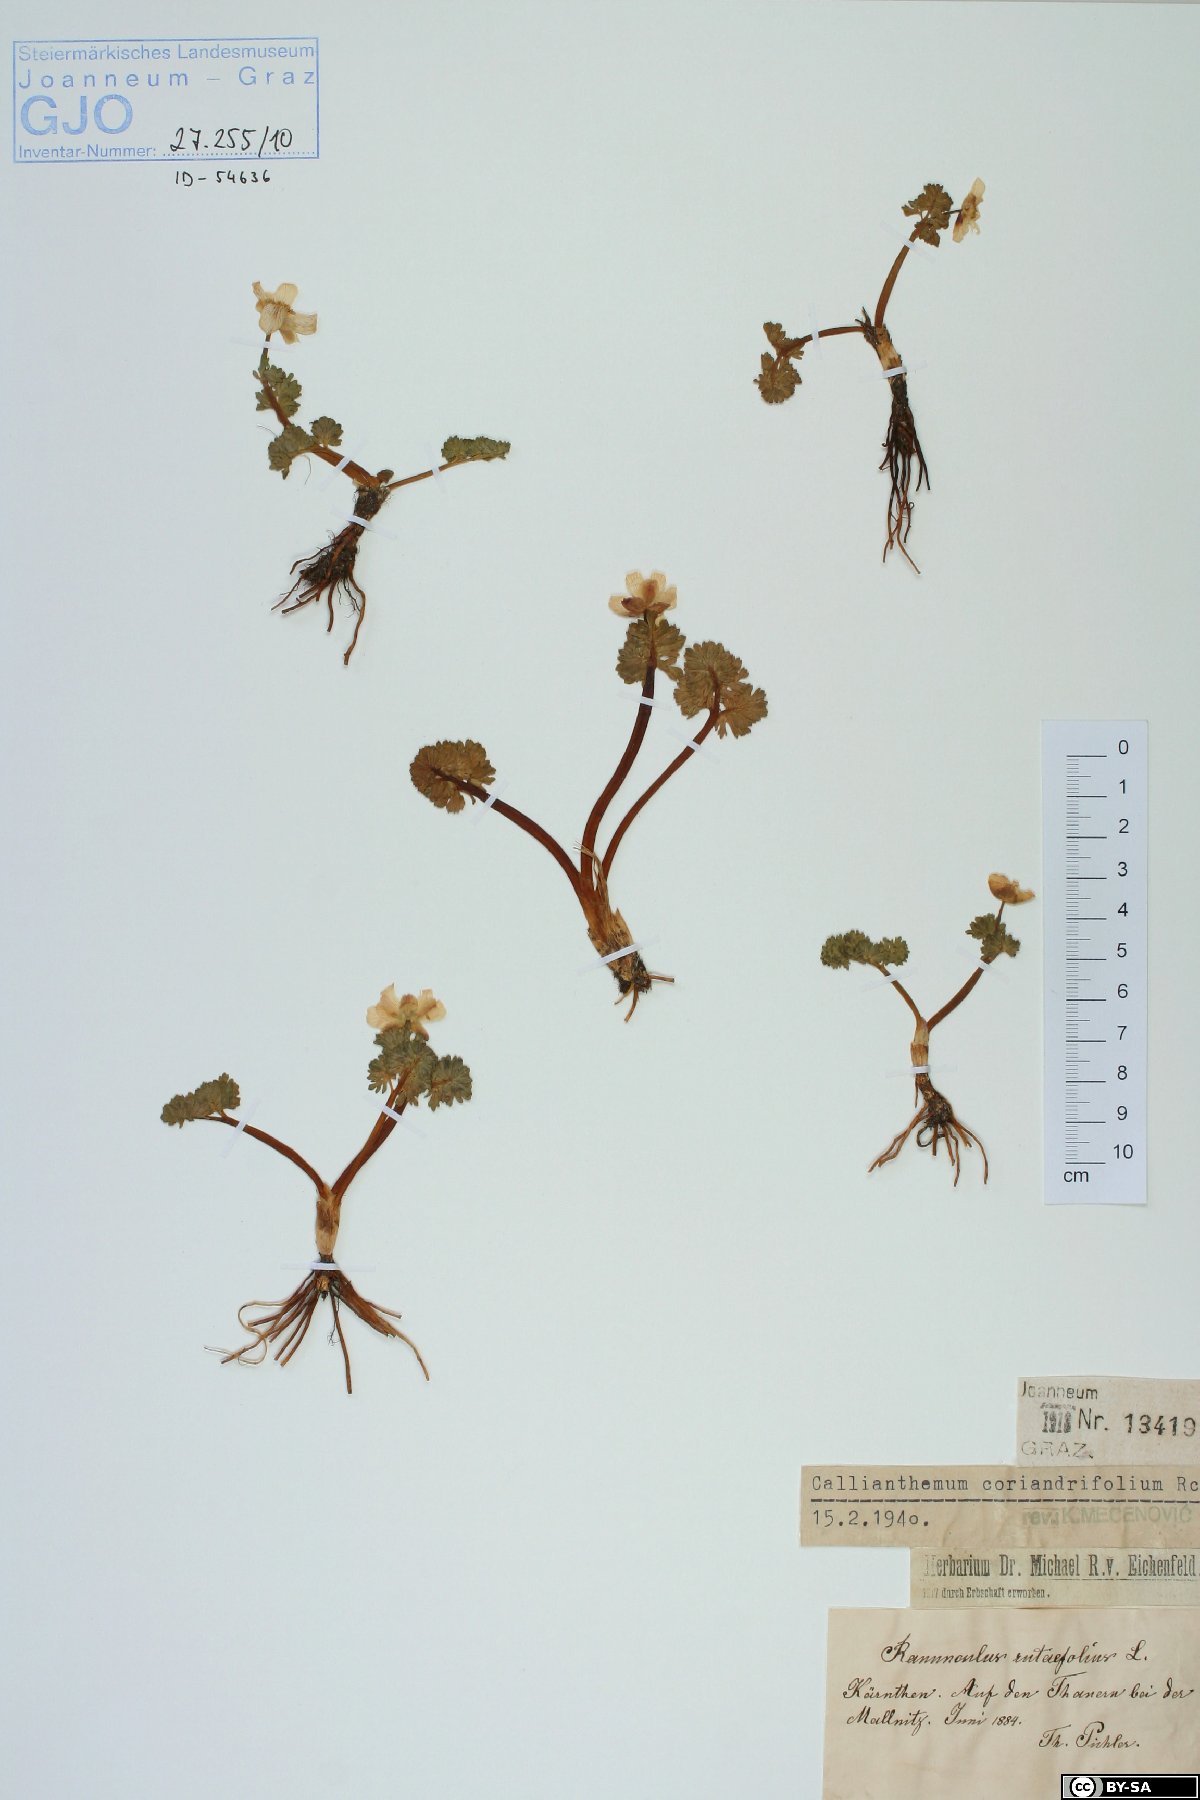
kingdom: Plantae
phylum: Tracheophyta
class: Magnoliopsida
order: Ranunculales
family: Ranunculaceae
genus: Callianthemum
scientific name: Callianthemum coriandrifolium
